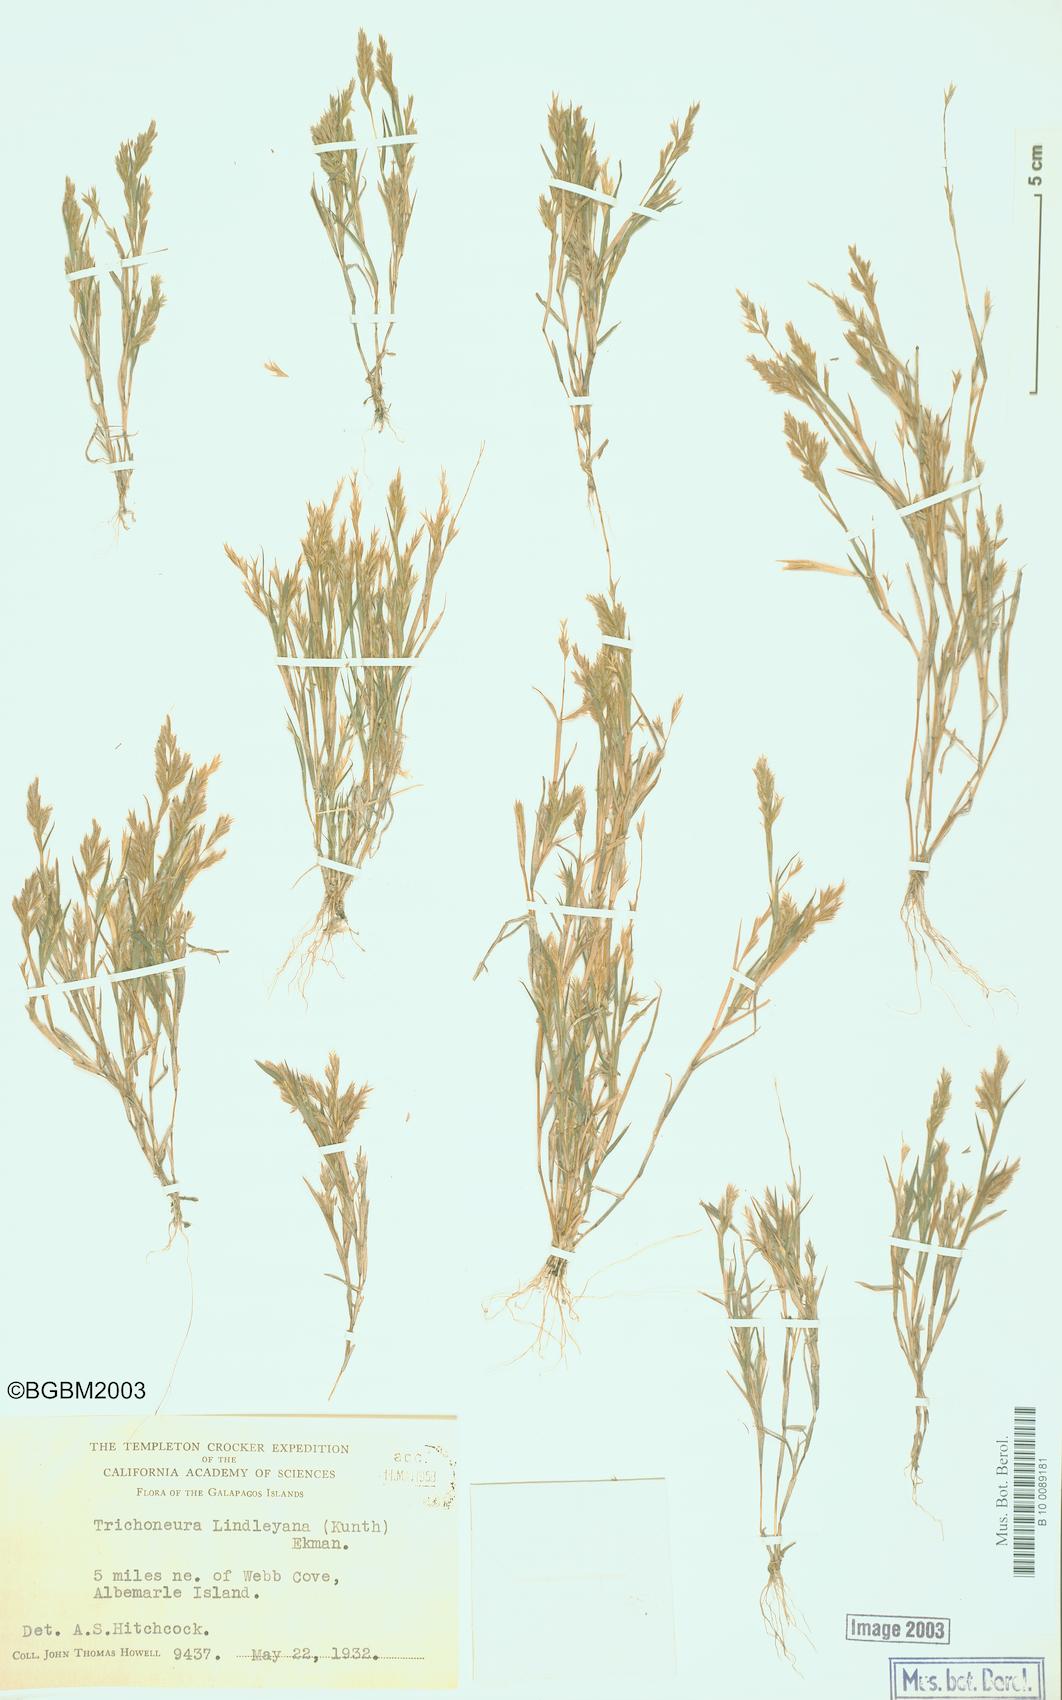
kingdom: Plantae
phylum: Tracheophyta
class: Liliopsida
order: Poales
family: Poaceae
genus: Trichoneura
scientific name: Trichoneura lindleyana
